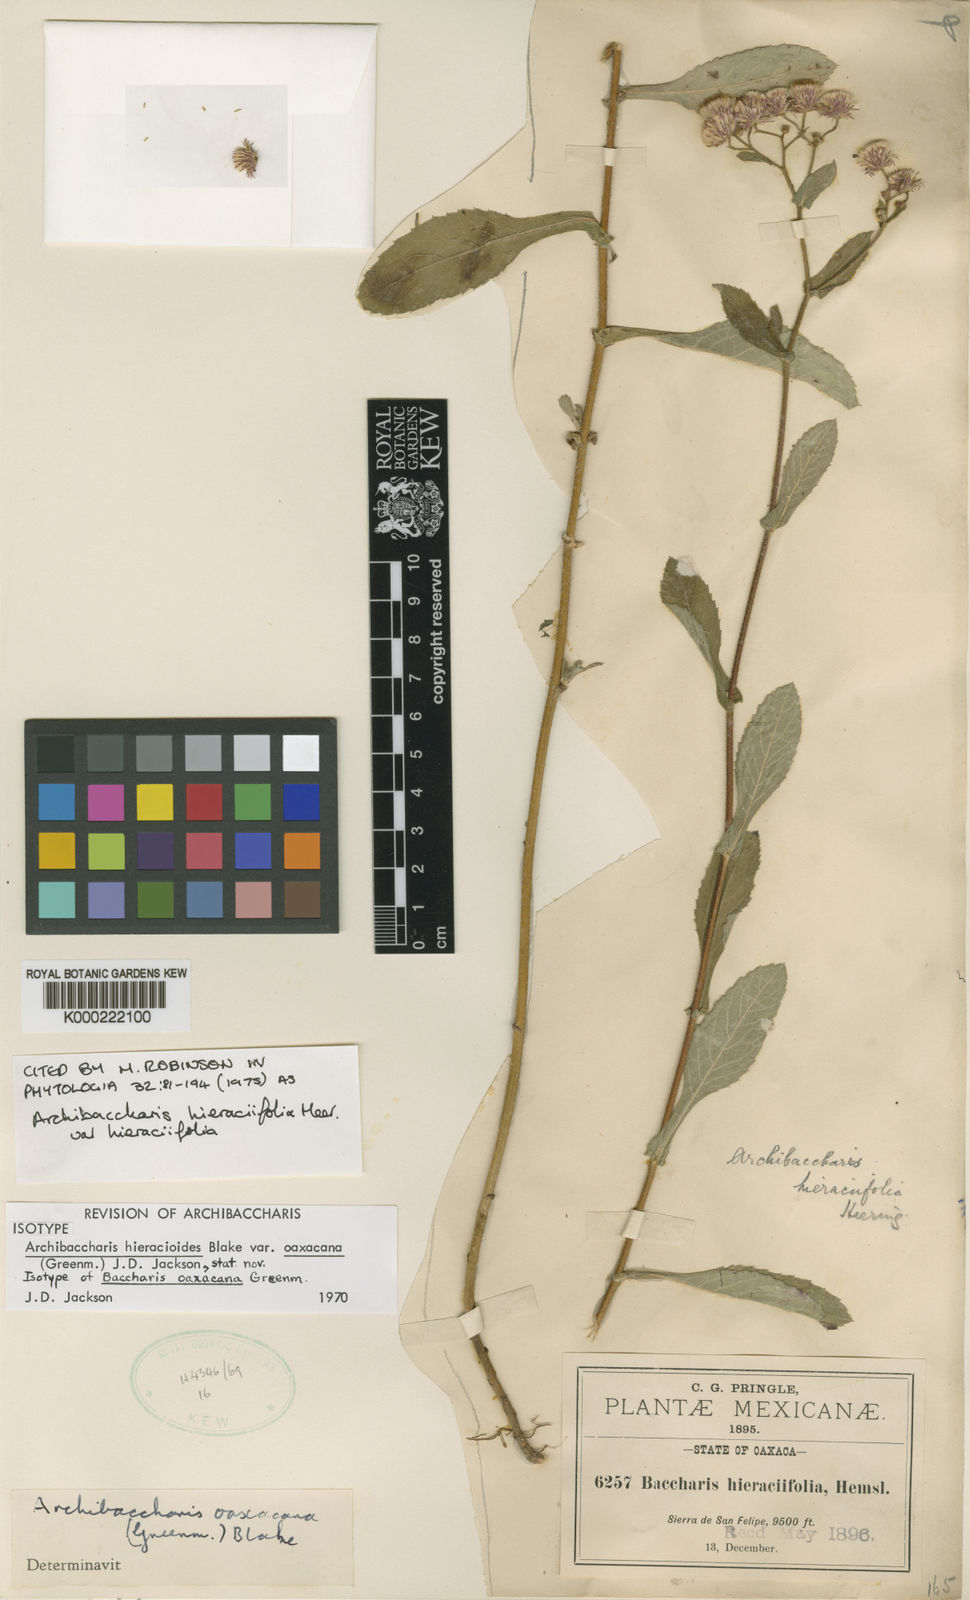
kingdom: Plantae
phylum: Tracheophyta
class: Magnoliopsida
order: Asterales
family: Asteraceae
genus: Archibaccharis
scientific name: Archibaccharis auriculata
